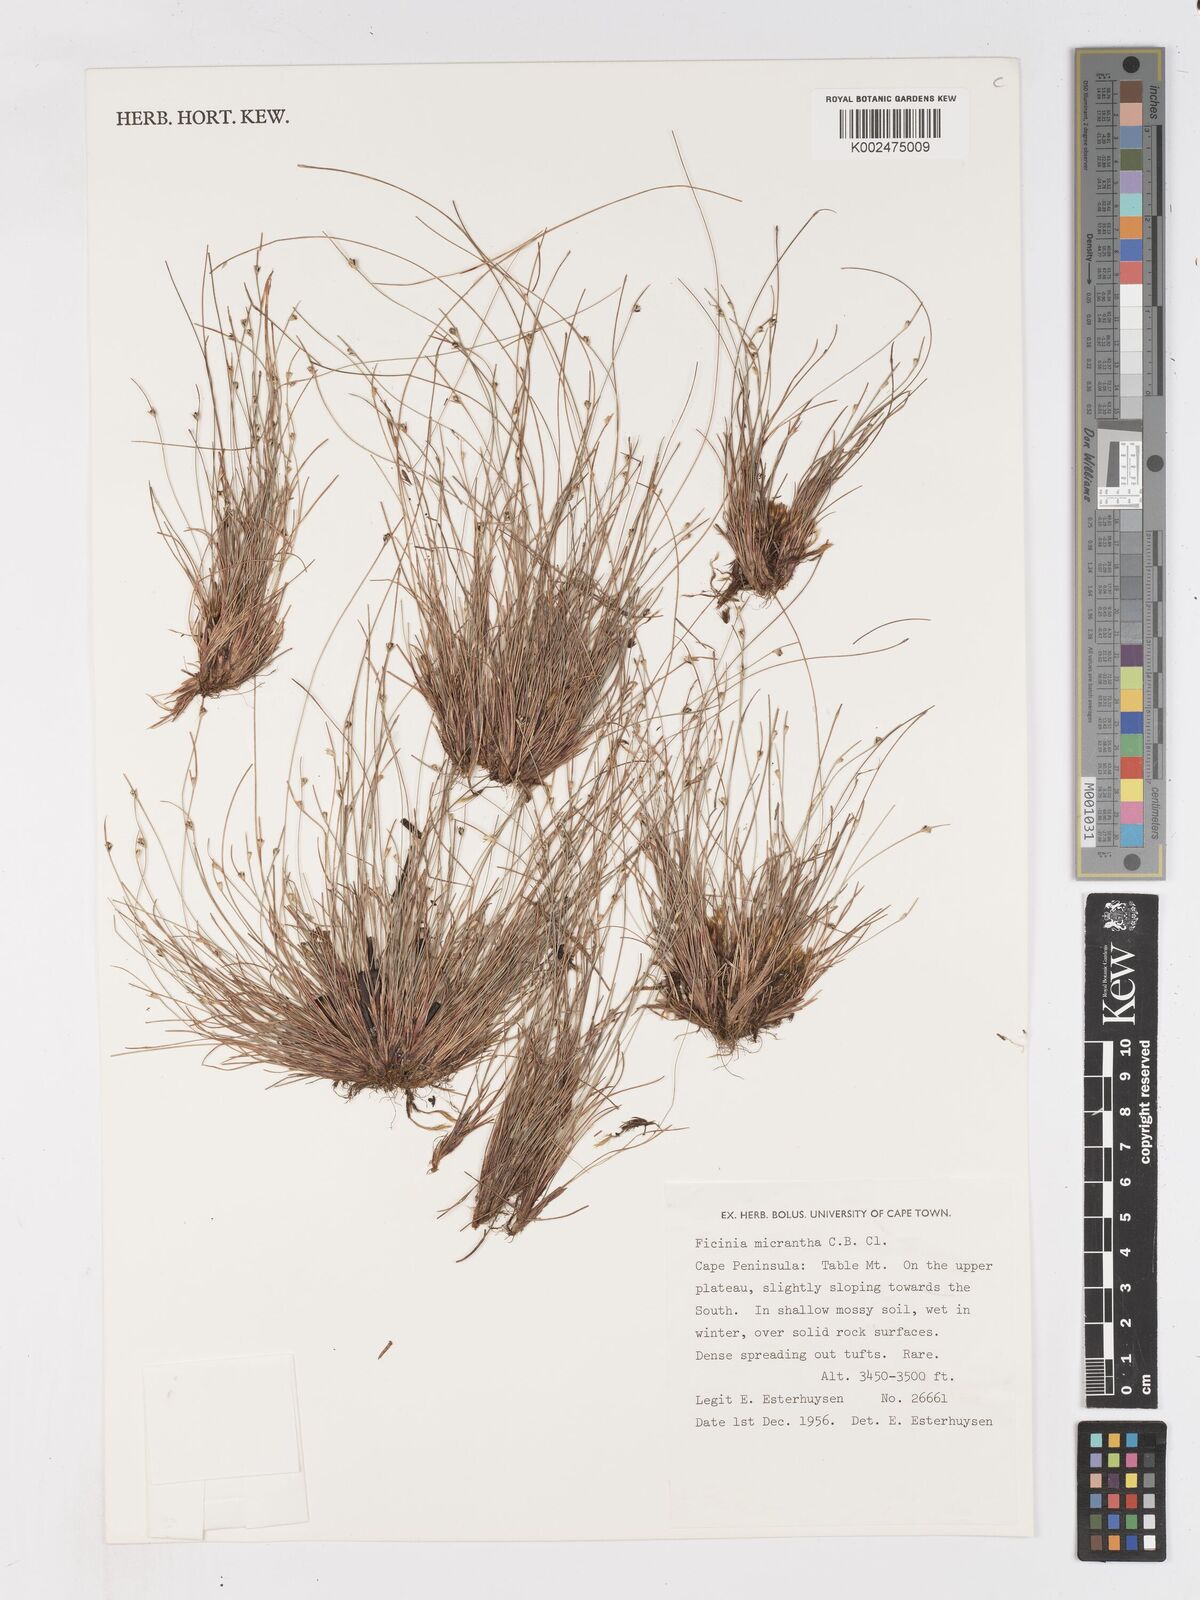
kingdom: Plantae
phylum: Tracheophyta
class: Liliopsida
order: Poales
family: Cyperaceae
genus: Ficinia
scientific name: Ficinia micrantha
